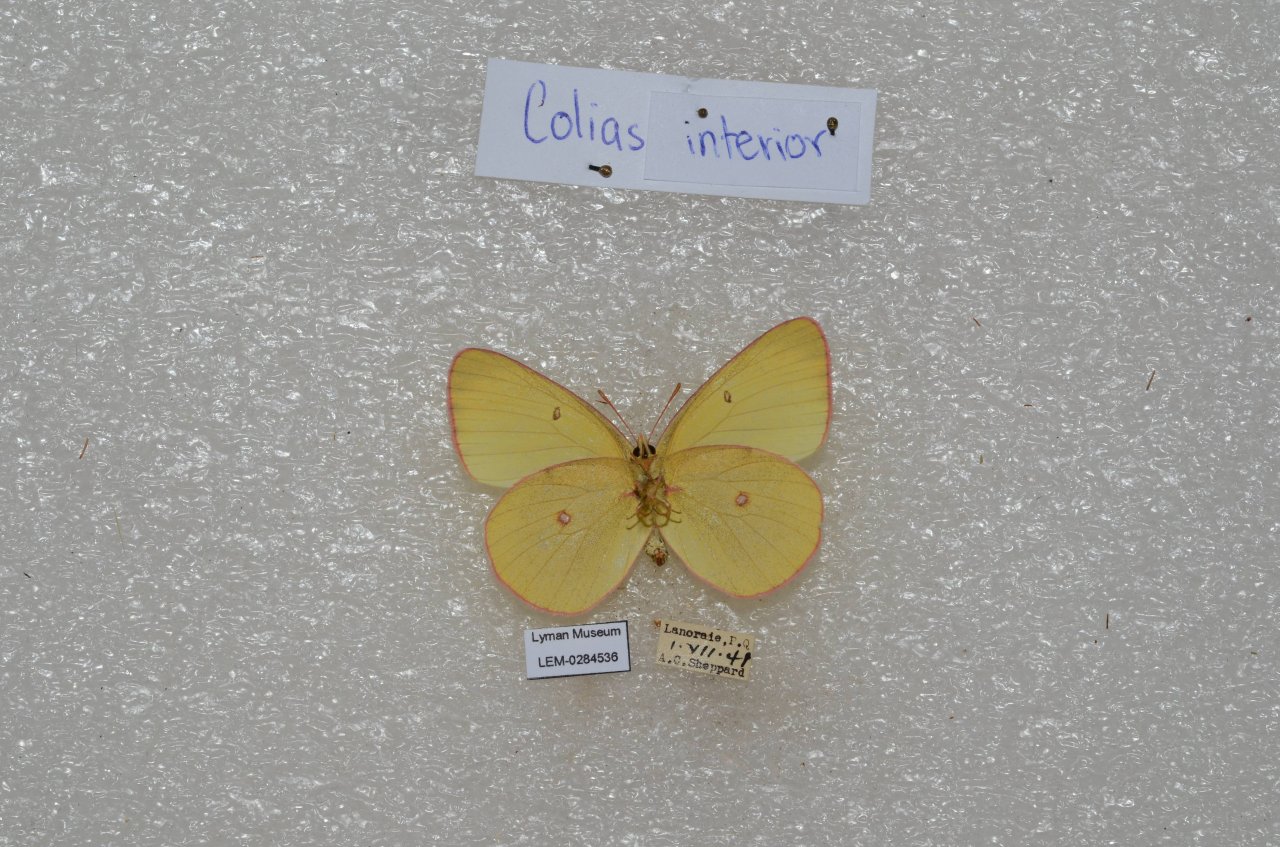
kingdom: Animalia
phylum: Arthropoda
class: Insecta
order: Lepidoptera
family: Pieridae
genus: Colias
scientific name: Colias interior
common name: Pink-edged Sulphur
